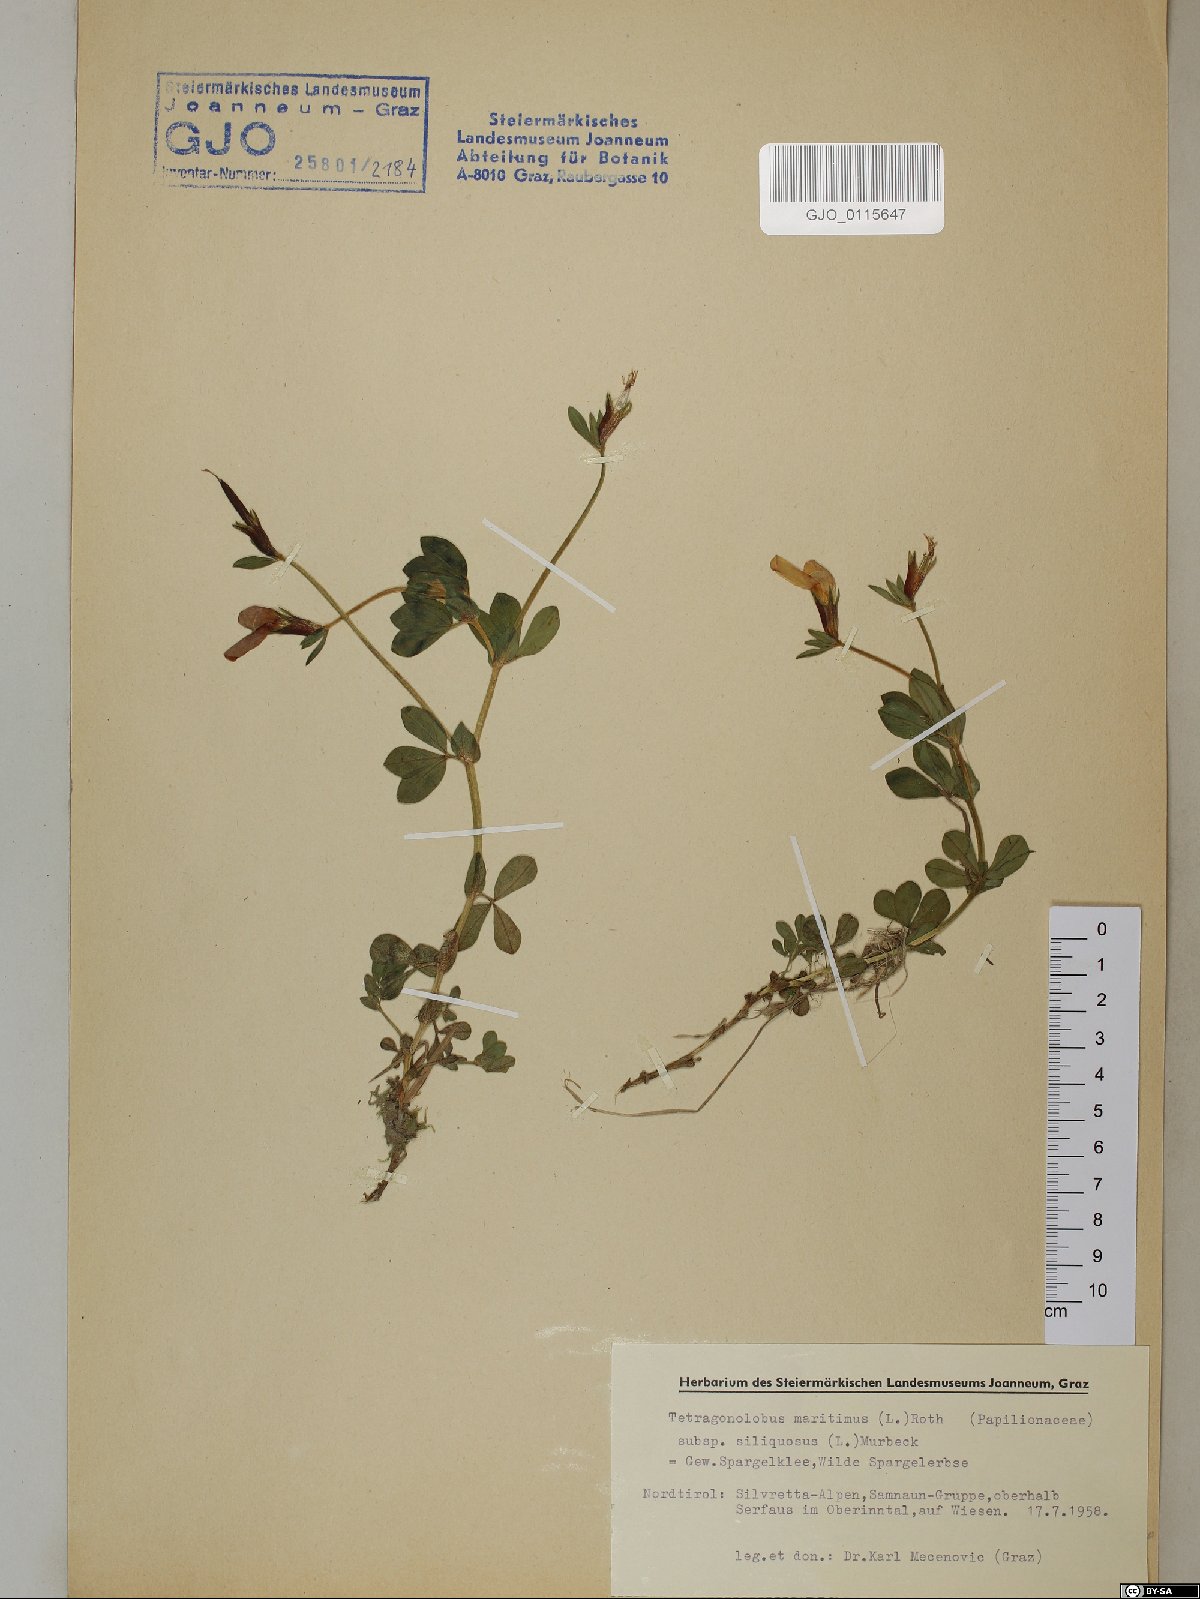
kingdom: Plantae
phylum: Tracheophyta
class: Magnoliopsida
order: Fabales
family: Fabaceae
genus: Lathyrus
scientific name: Lathyrus inconspicuus
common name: Inconspicuous pea
